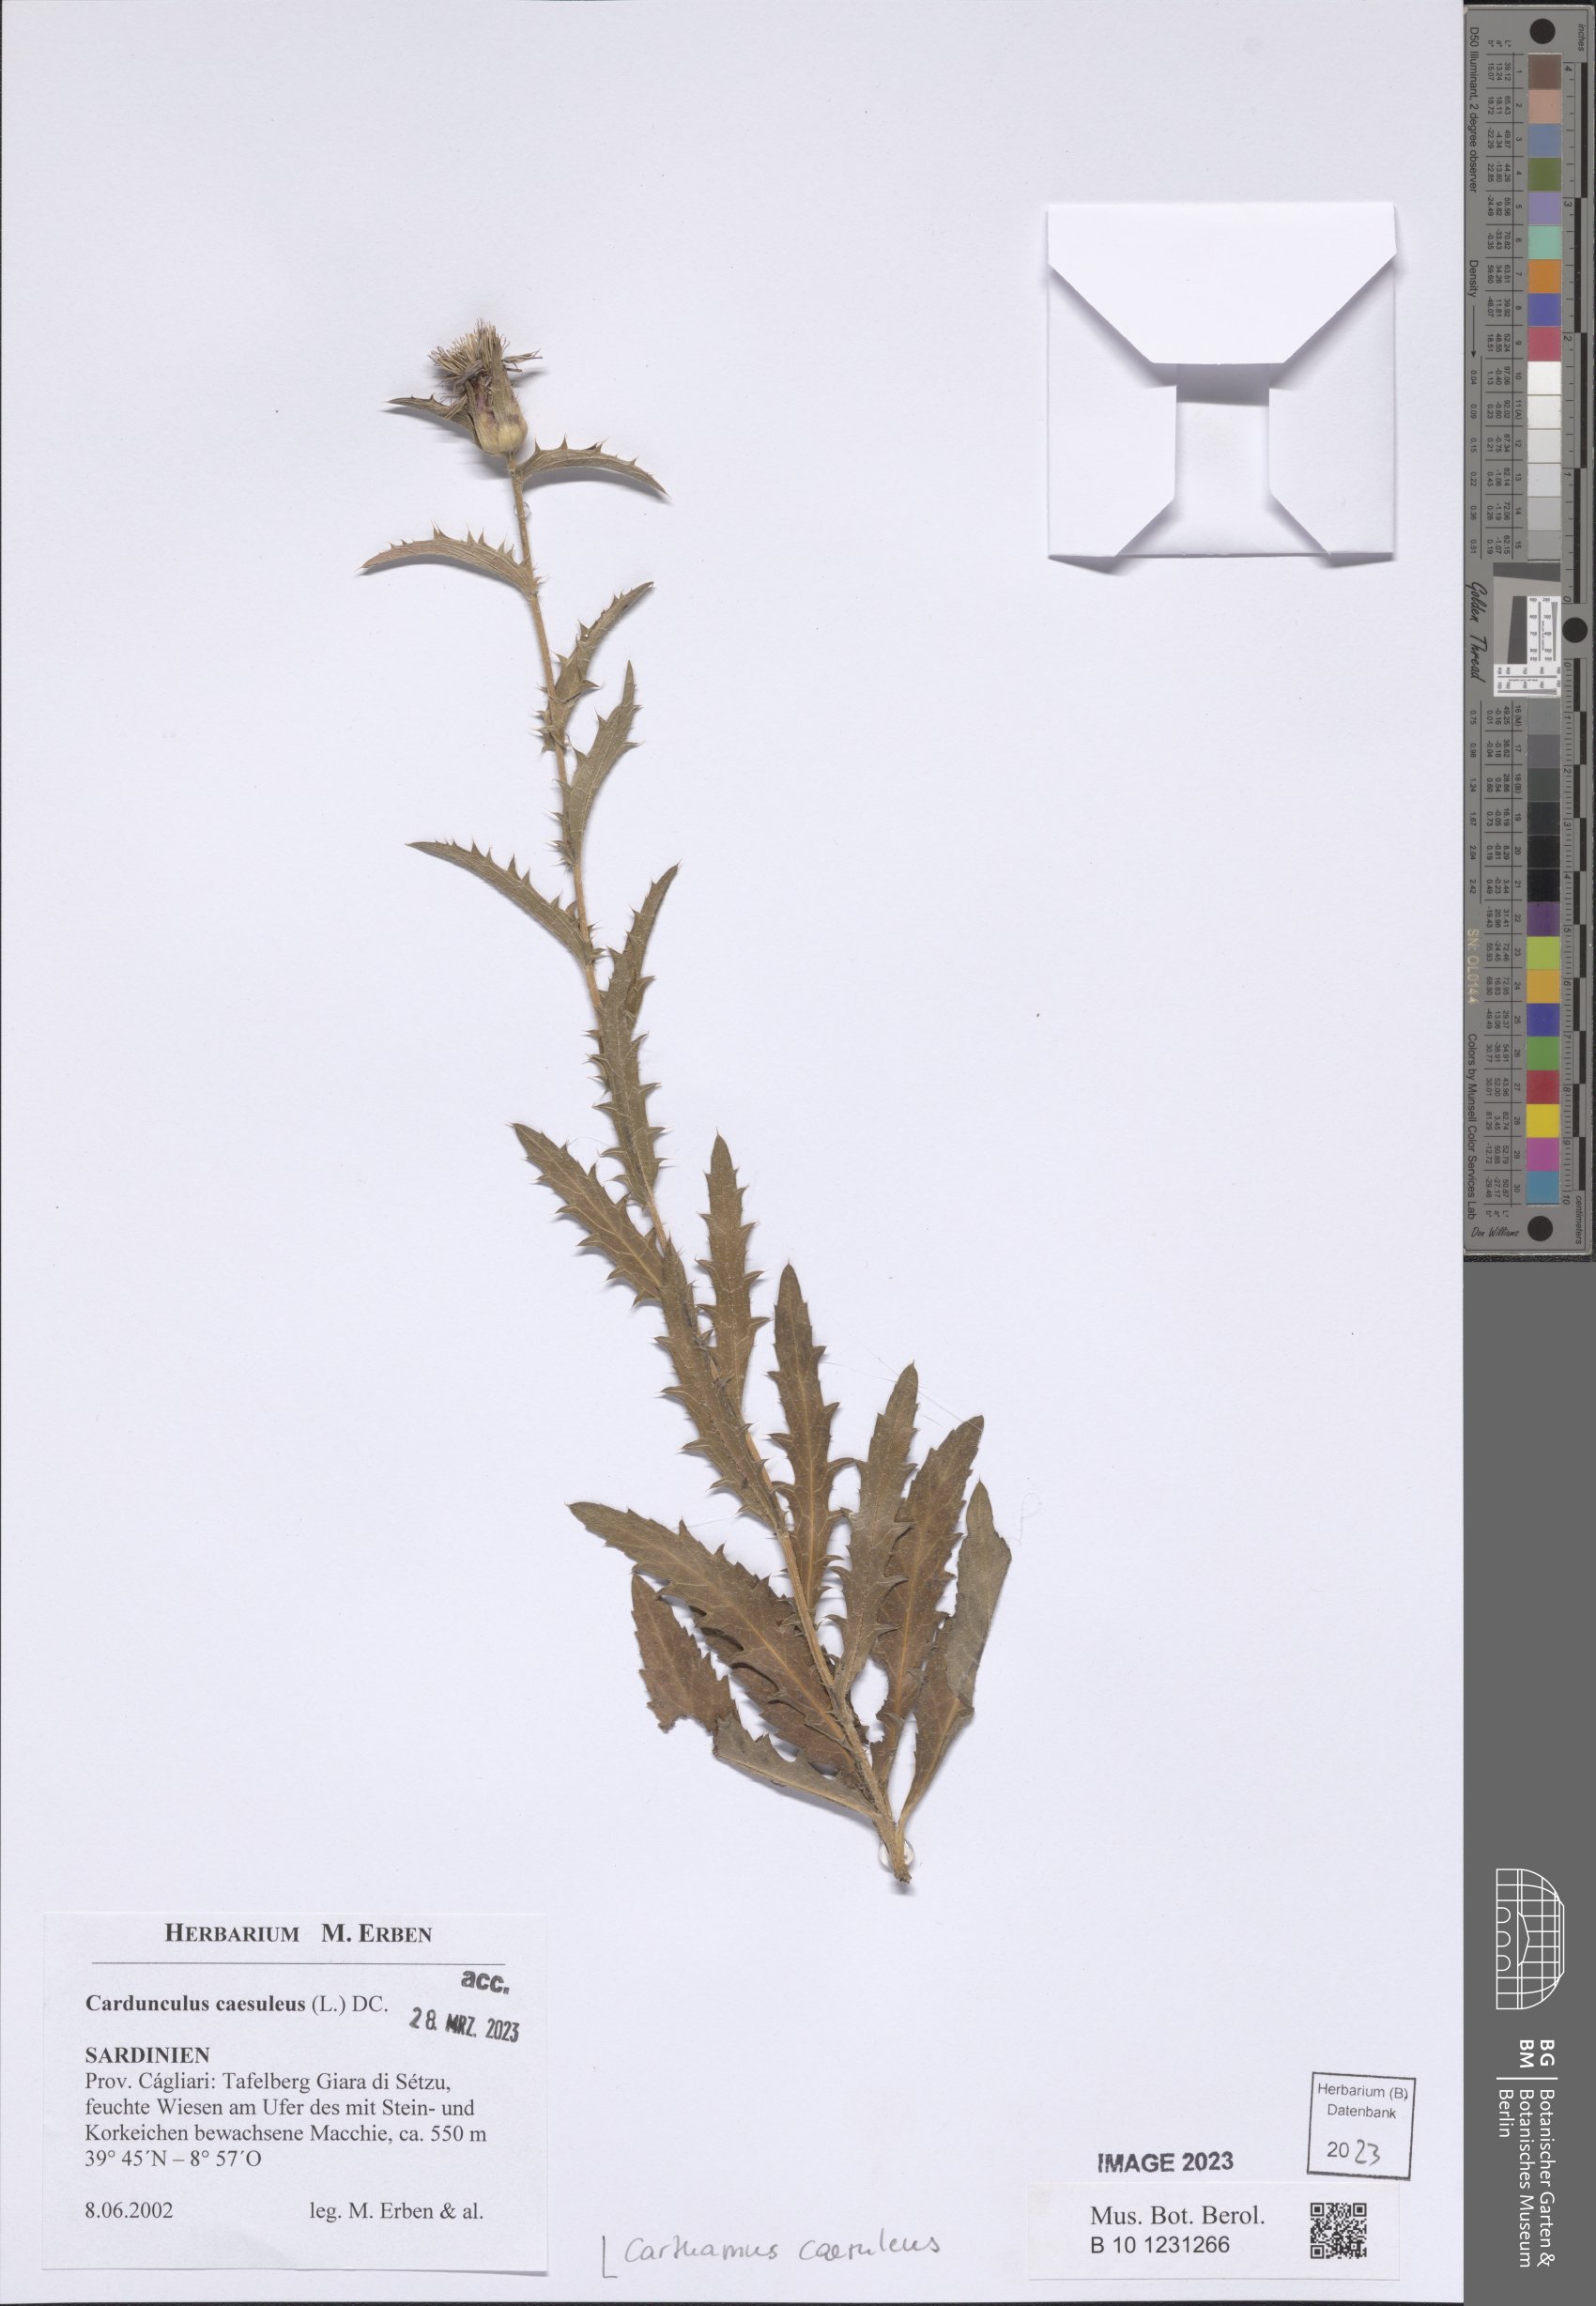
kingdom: Plantae
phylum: Tracheophyta
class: Magnoliopsida
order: Asterales
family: Asteraceae
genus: Carduncellus
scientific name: Carduncellus caeruleus
